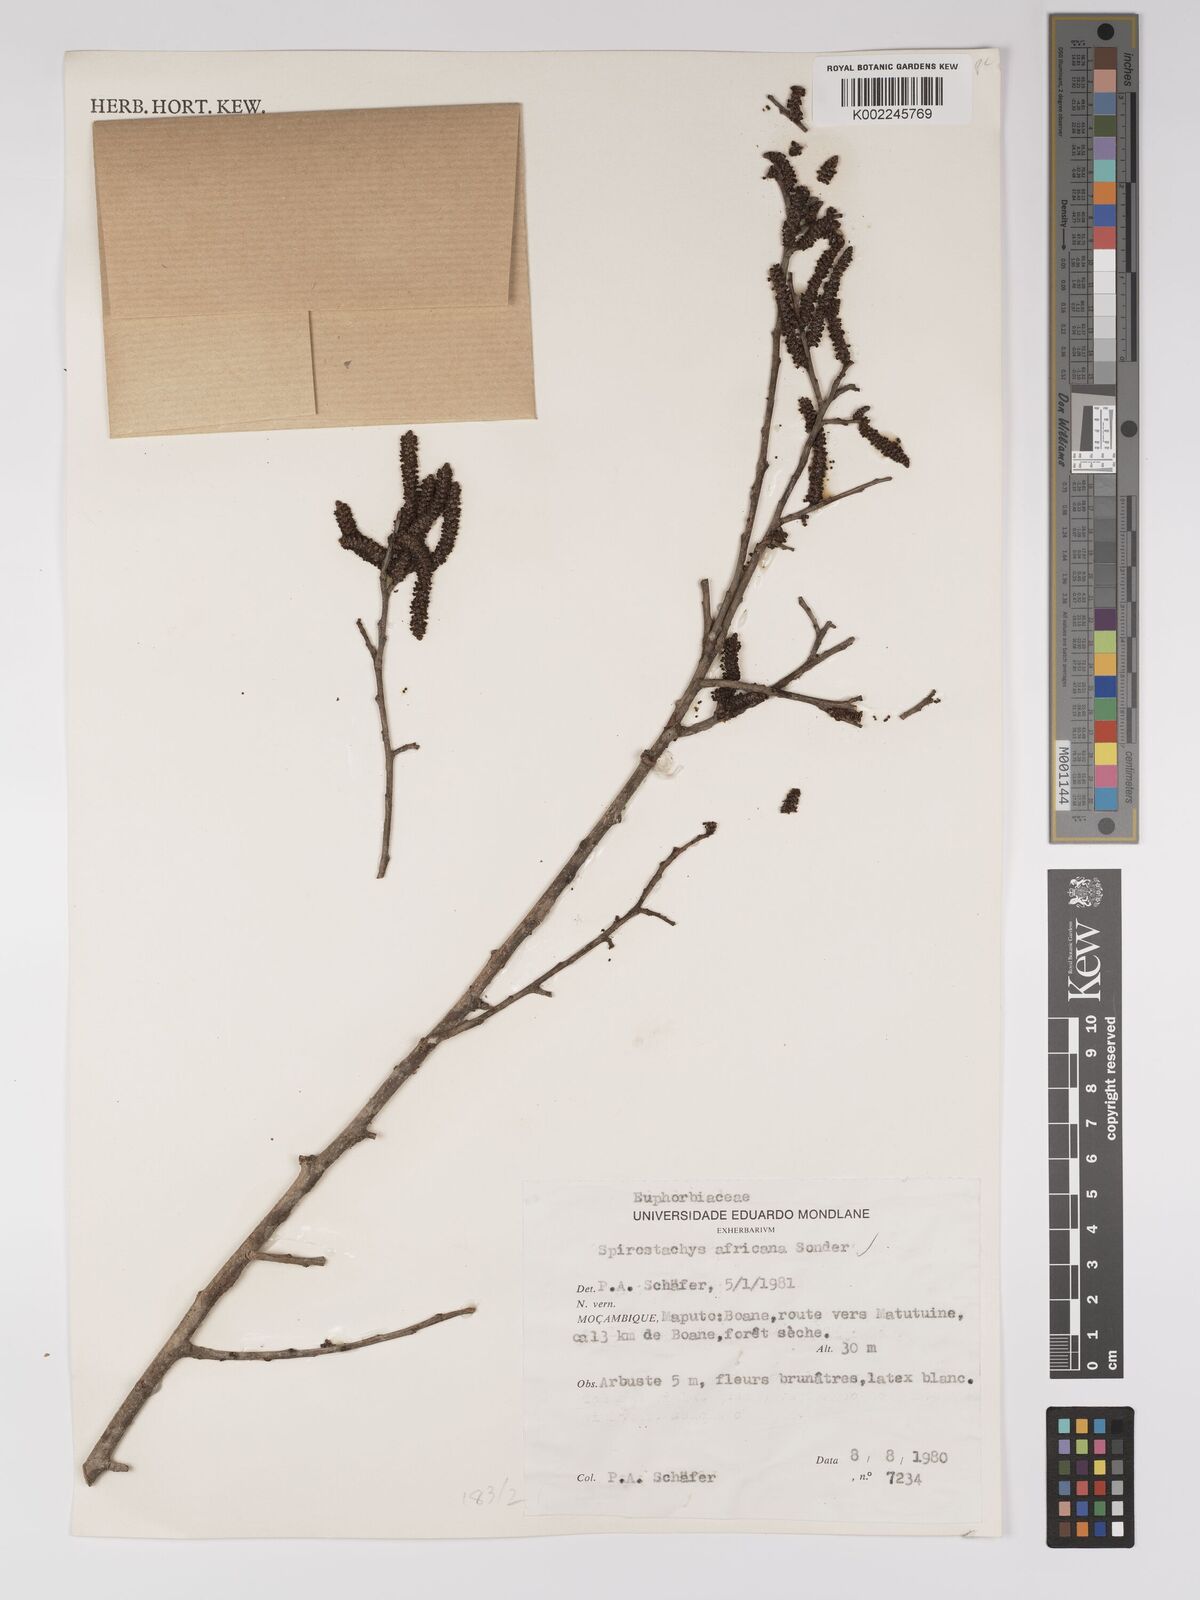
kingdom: Plantae
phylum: Tracheophyta
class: Magnoliopsida
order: Malpighiales
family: Euphorbiaceae
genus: Spirostachys
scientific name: Spirostachys africana
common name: Tamboti
